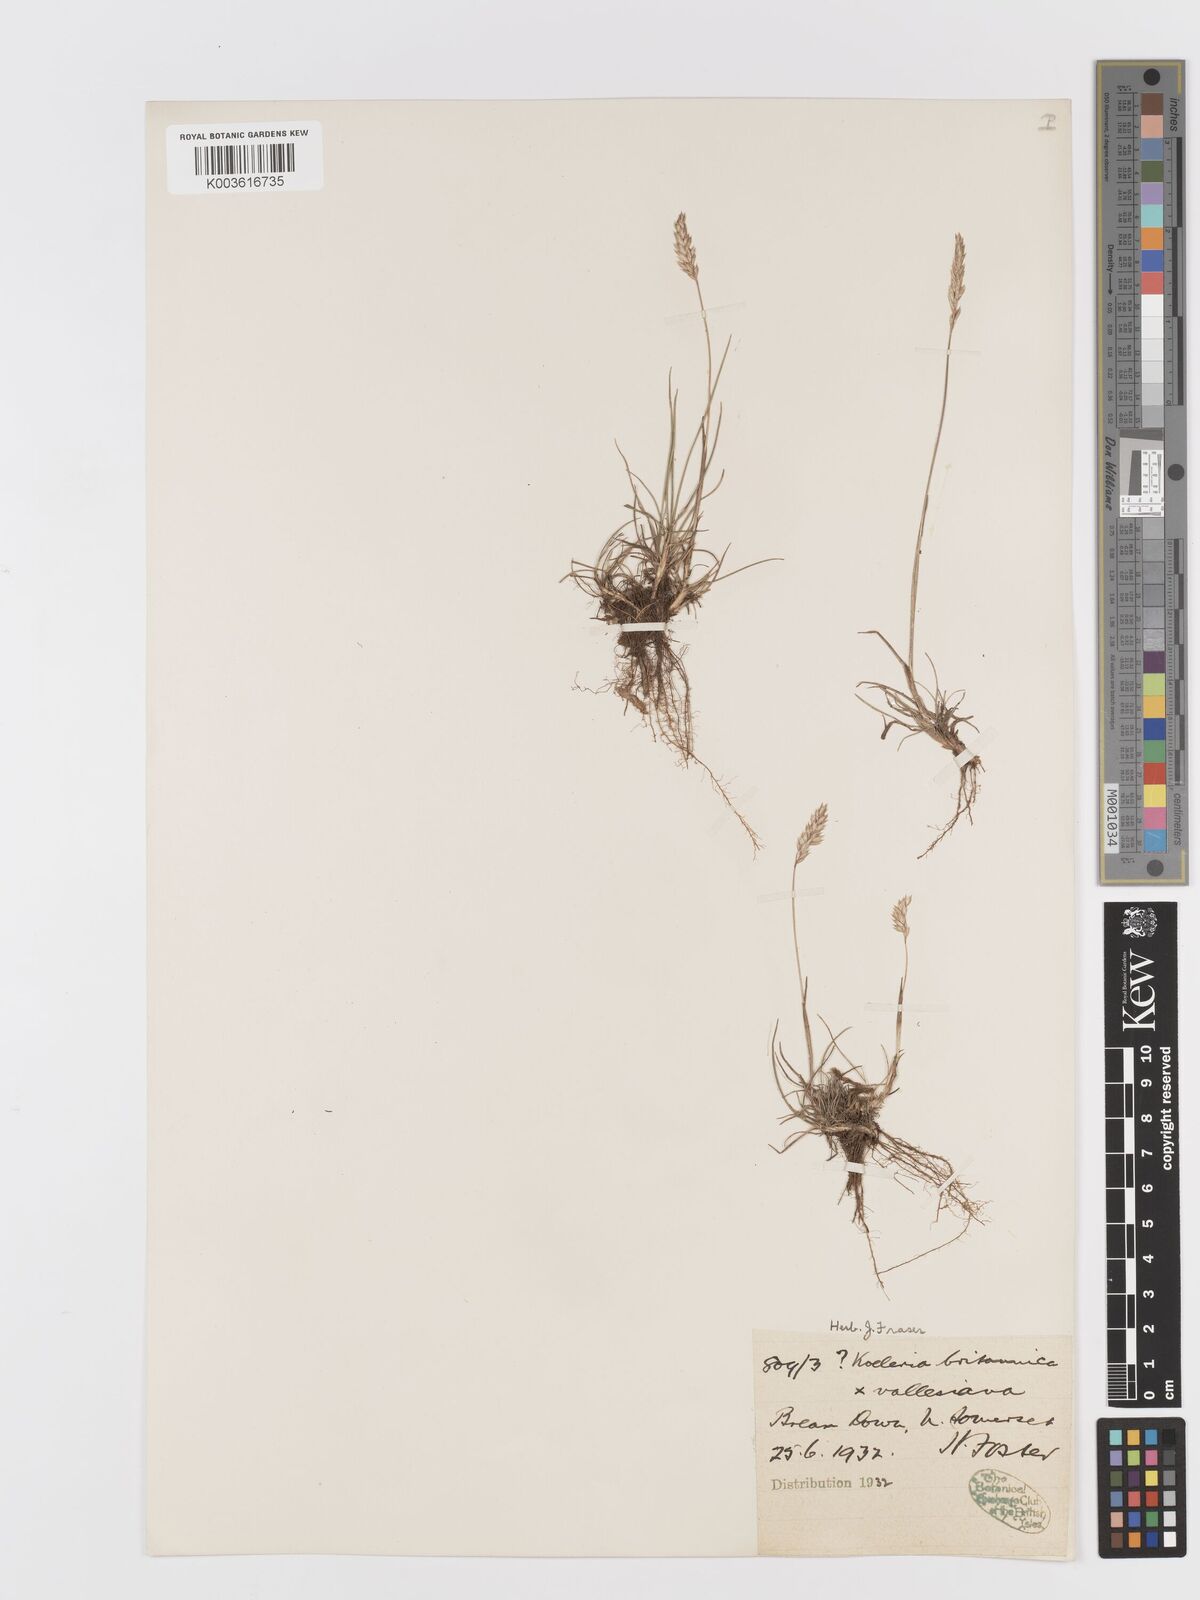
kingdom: Plantae
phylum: Tracheophyta
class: Liliopsida
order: Poales
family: Poaceae
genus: Koeleria
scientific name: Koeleria
